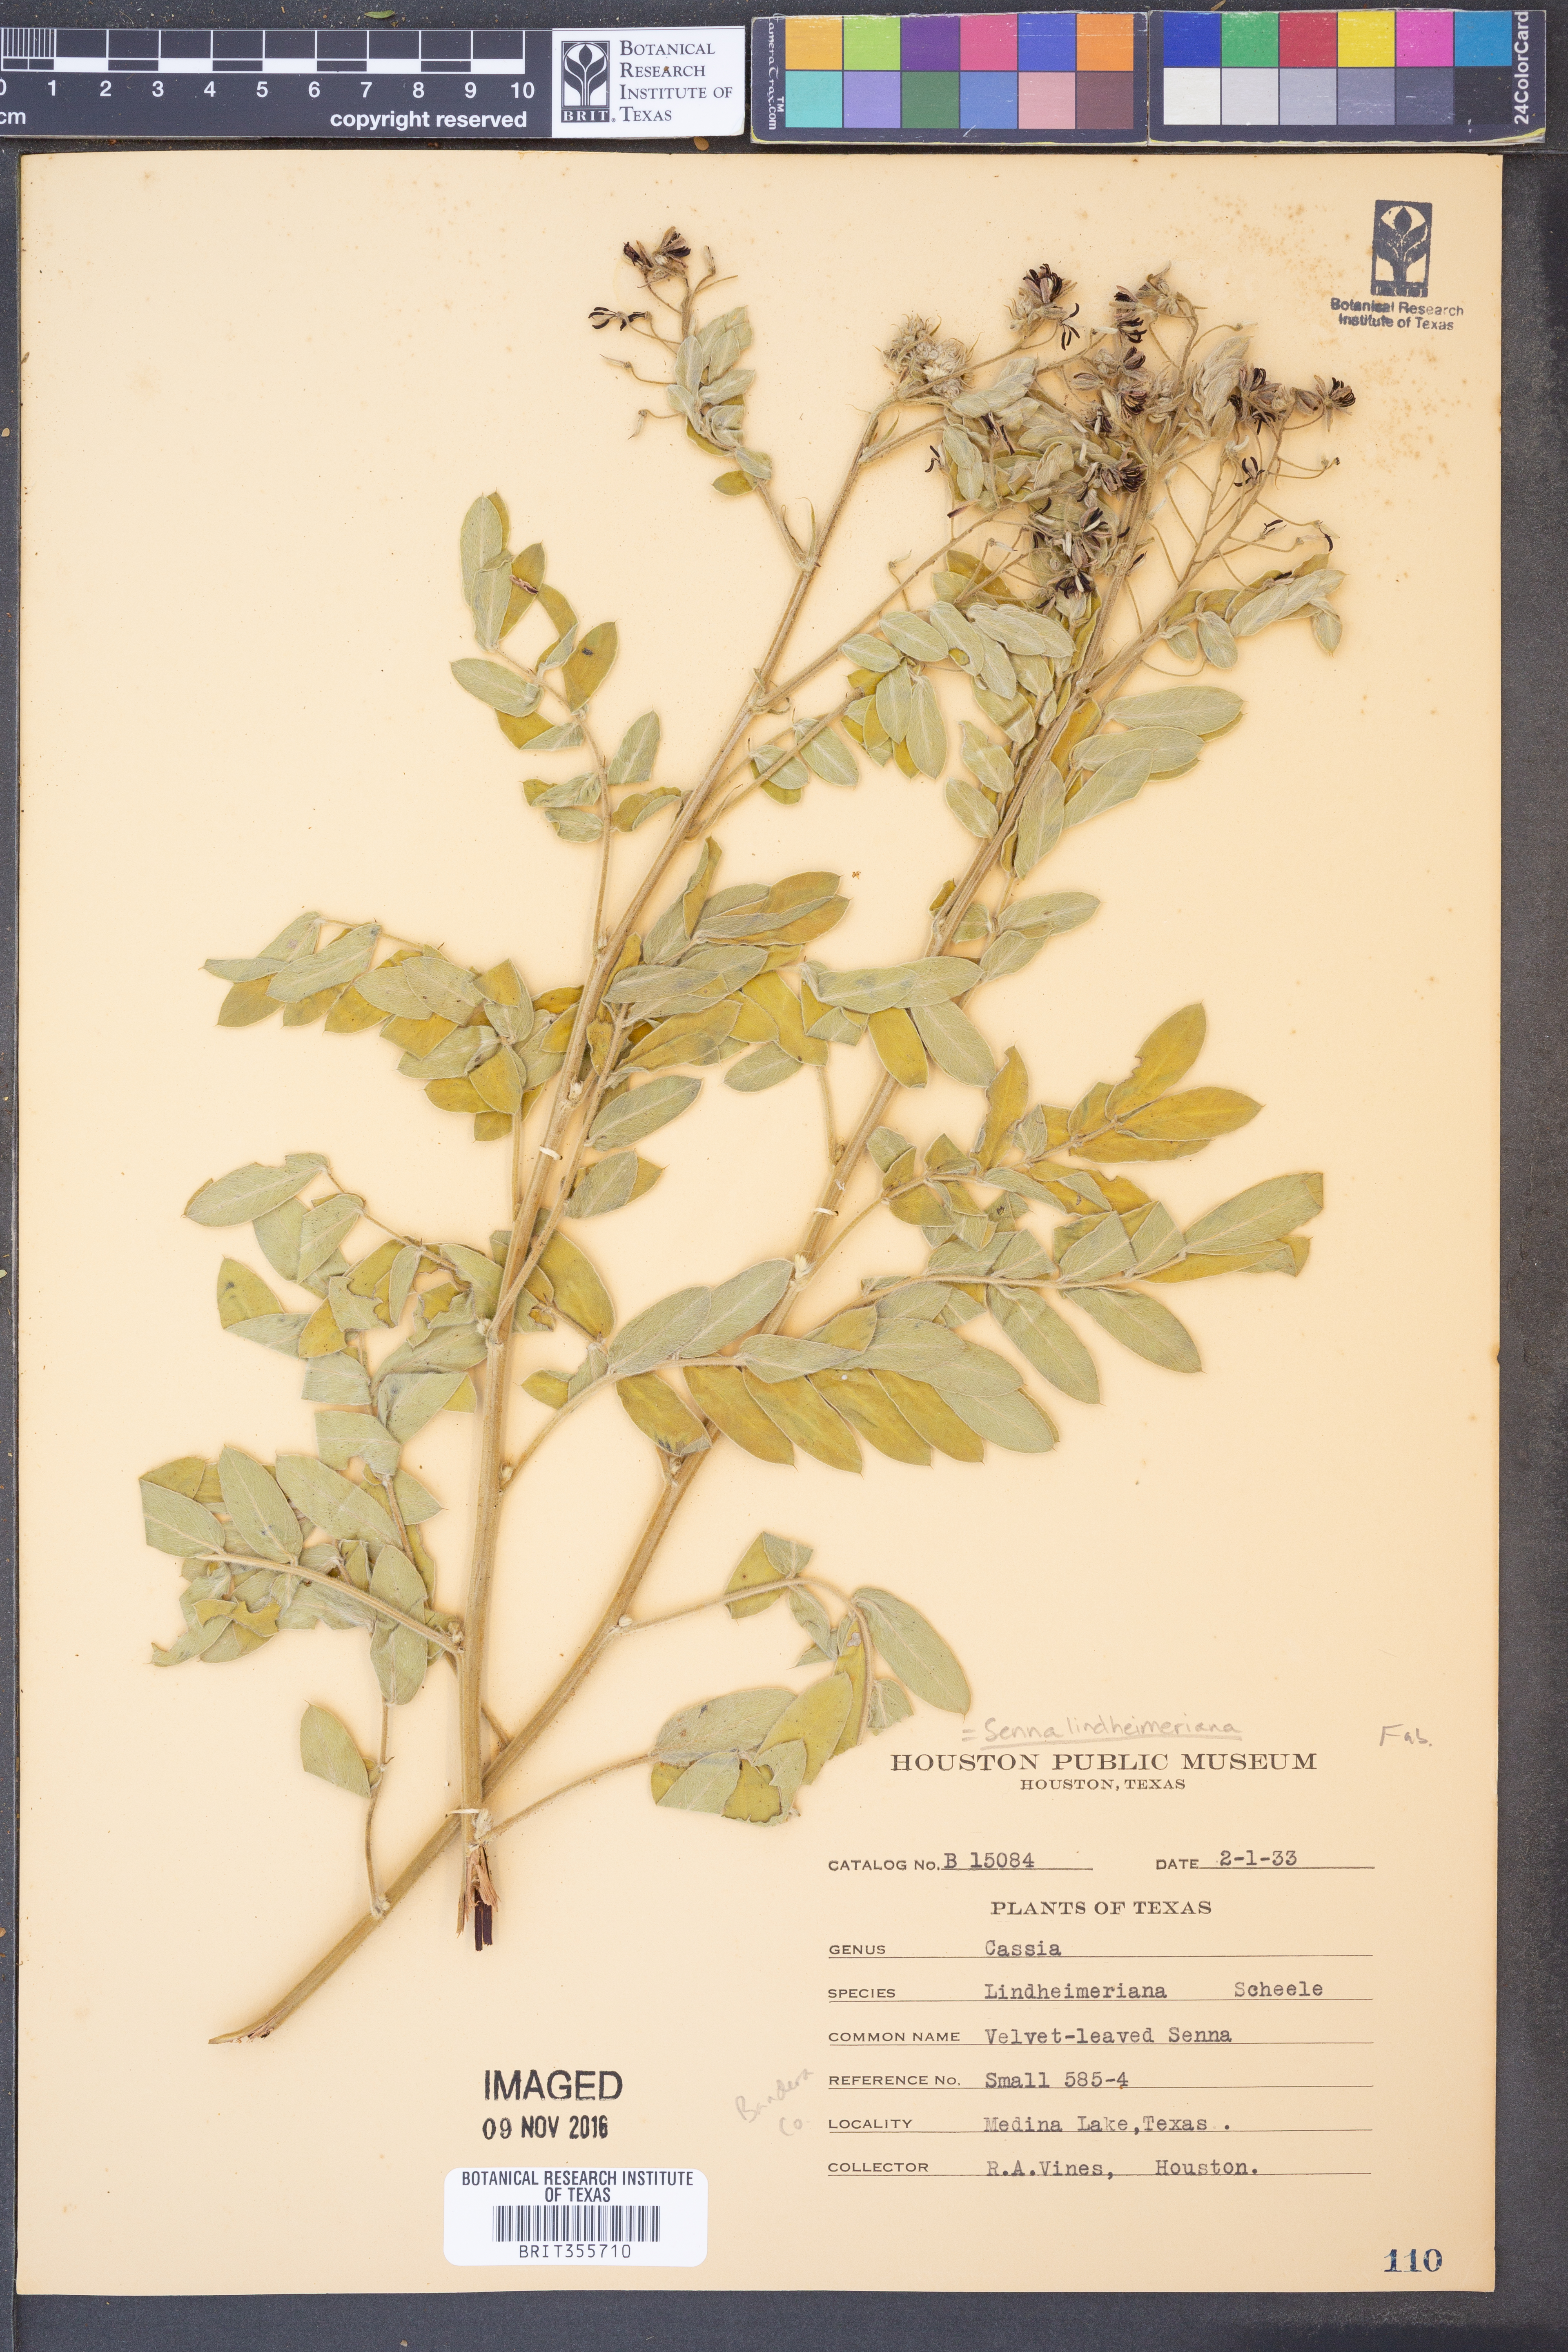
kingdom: Plantae
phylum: Tracheophyta
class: Magnoliopsida
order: Fabales
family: Fabaceae
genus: Senna
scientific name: Senna lindheimeriana
